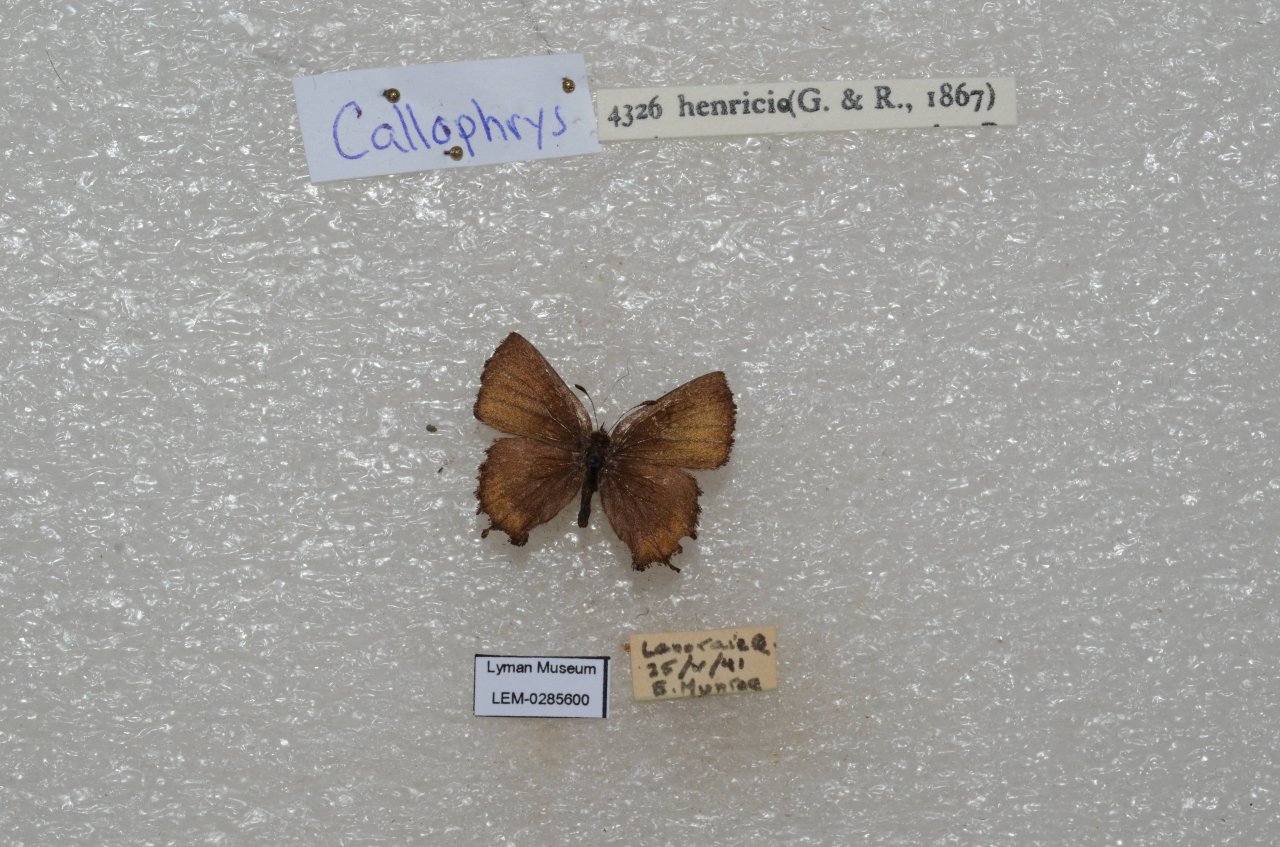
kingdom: Animalia
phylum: Arthropoda
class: Insecta
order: Lepidoptera
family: Lycaenidae
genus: Incisalia
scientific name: Incisalia henrici
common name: Henry's Elfin
